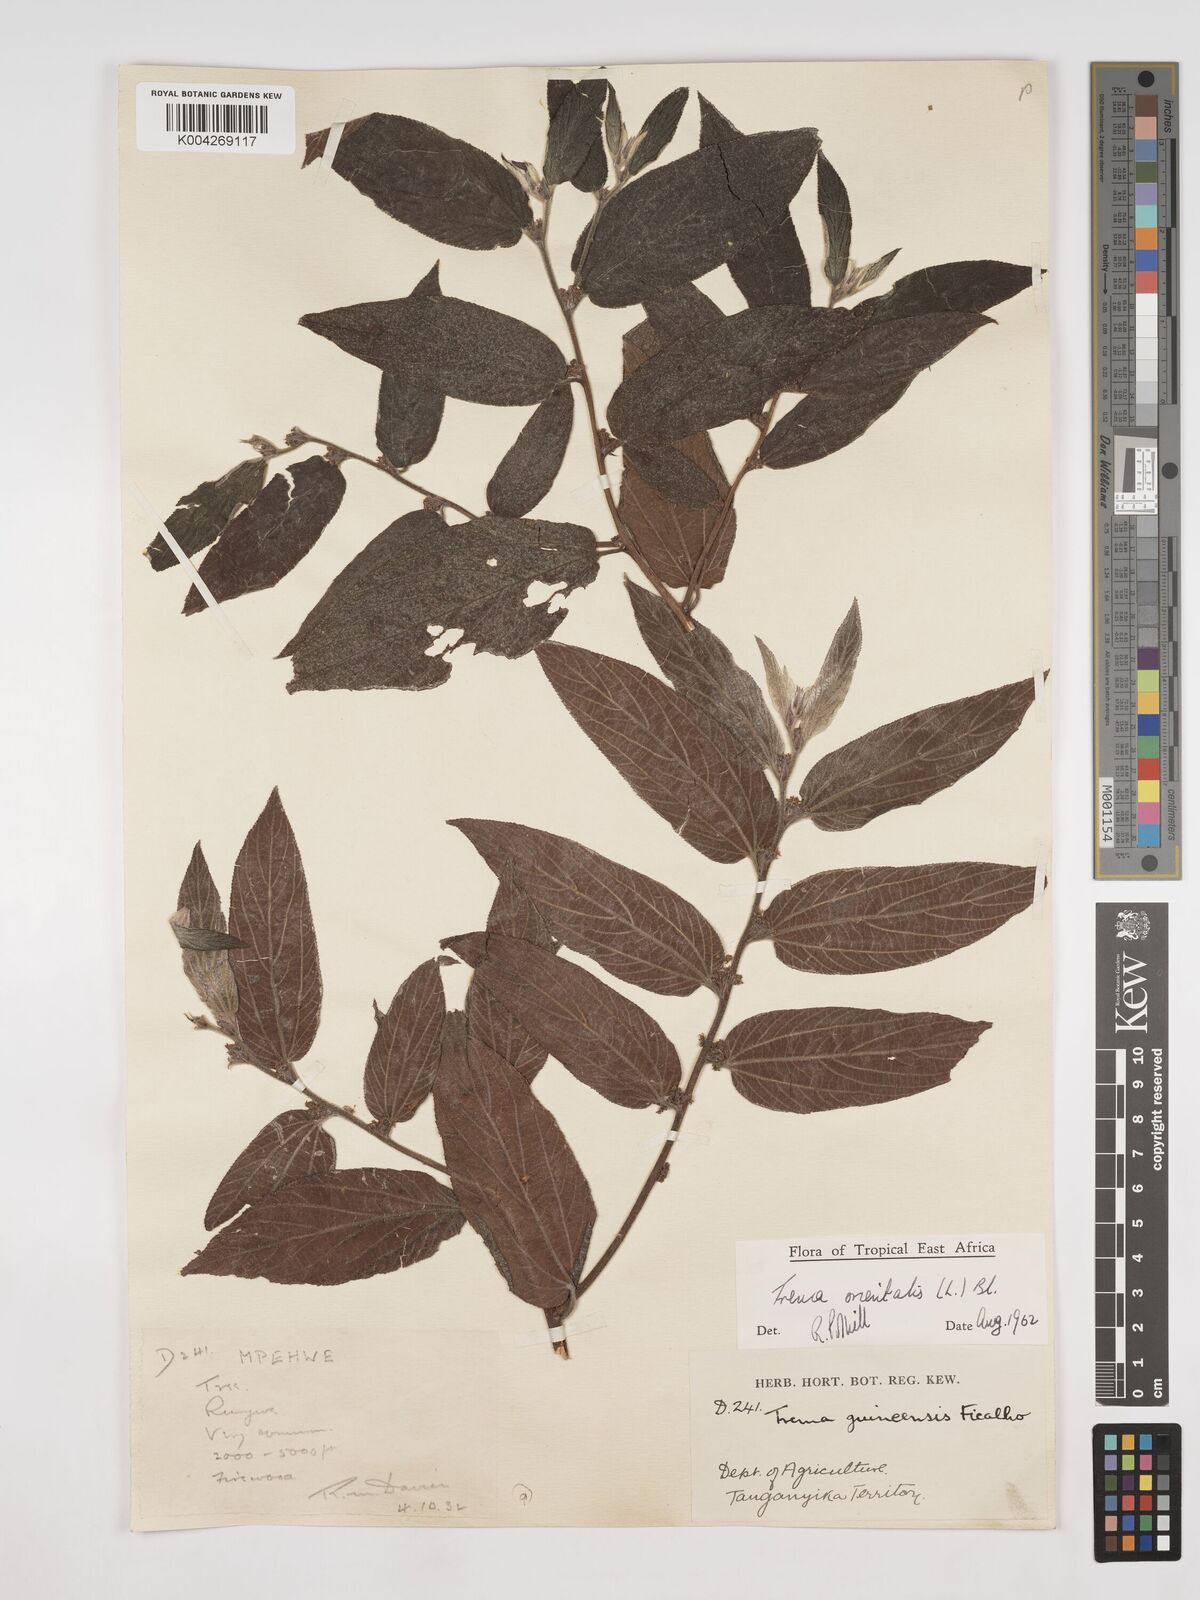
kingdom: Plantae
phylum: Tracheophyta
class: Magnoliopsida
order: Rosales
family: Cannabaceae
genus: Trema
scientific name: Trema orientale
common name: Indian charcoal tree
